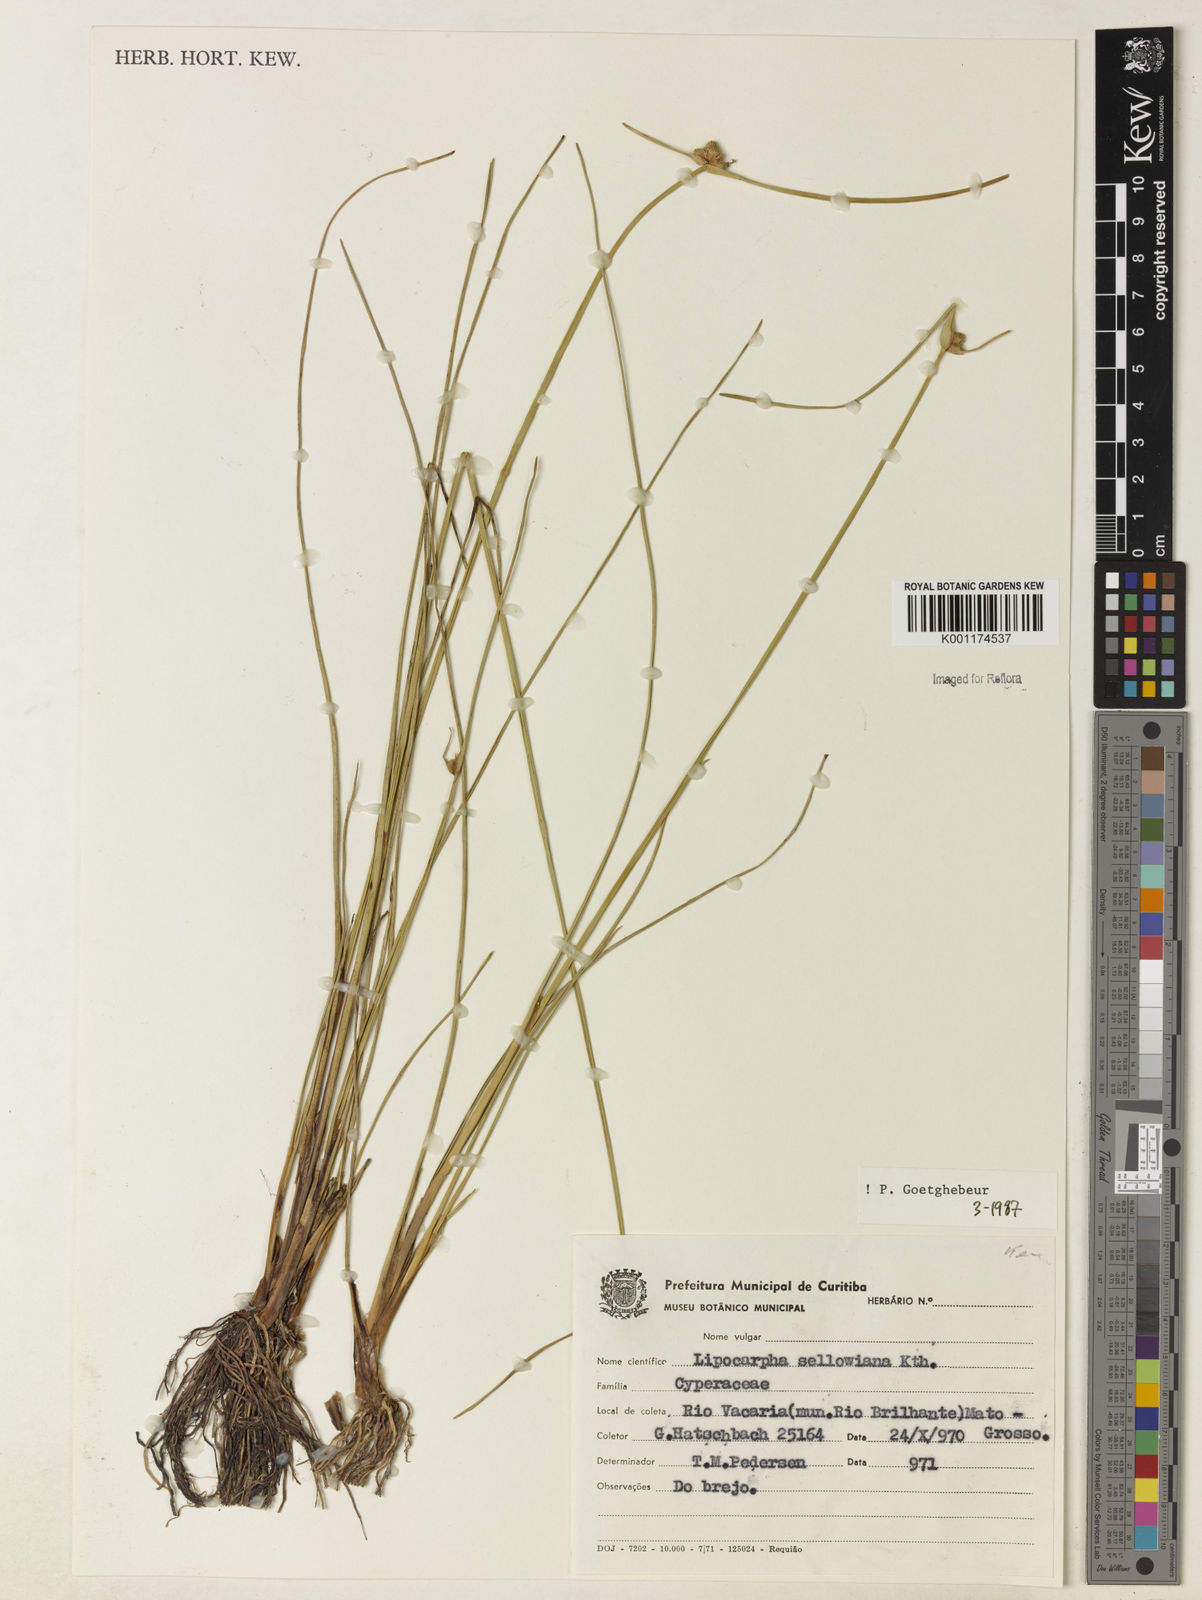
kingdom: Plantae
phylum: Tracheophyta
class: Liliopsida
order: Poales
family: Cyperaceae
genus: Cyperus
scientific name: Cyperus lanceolatus
